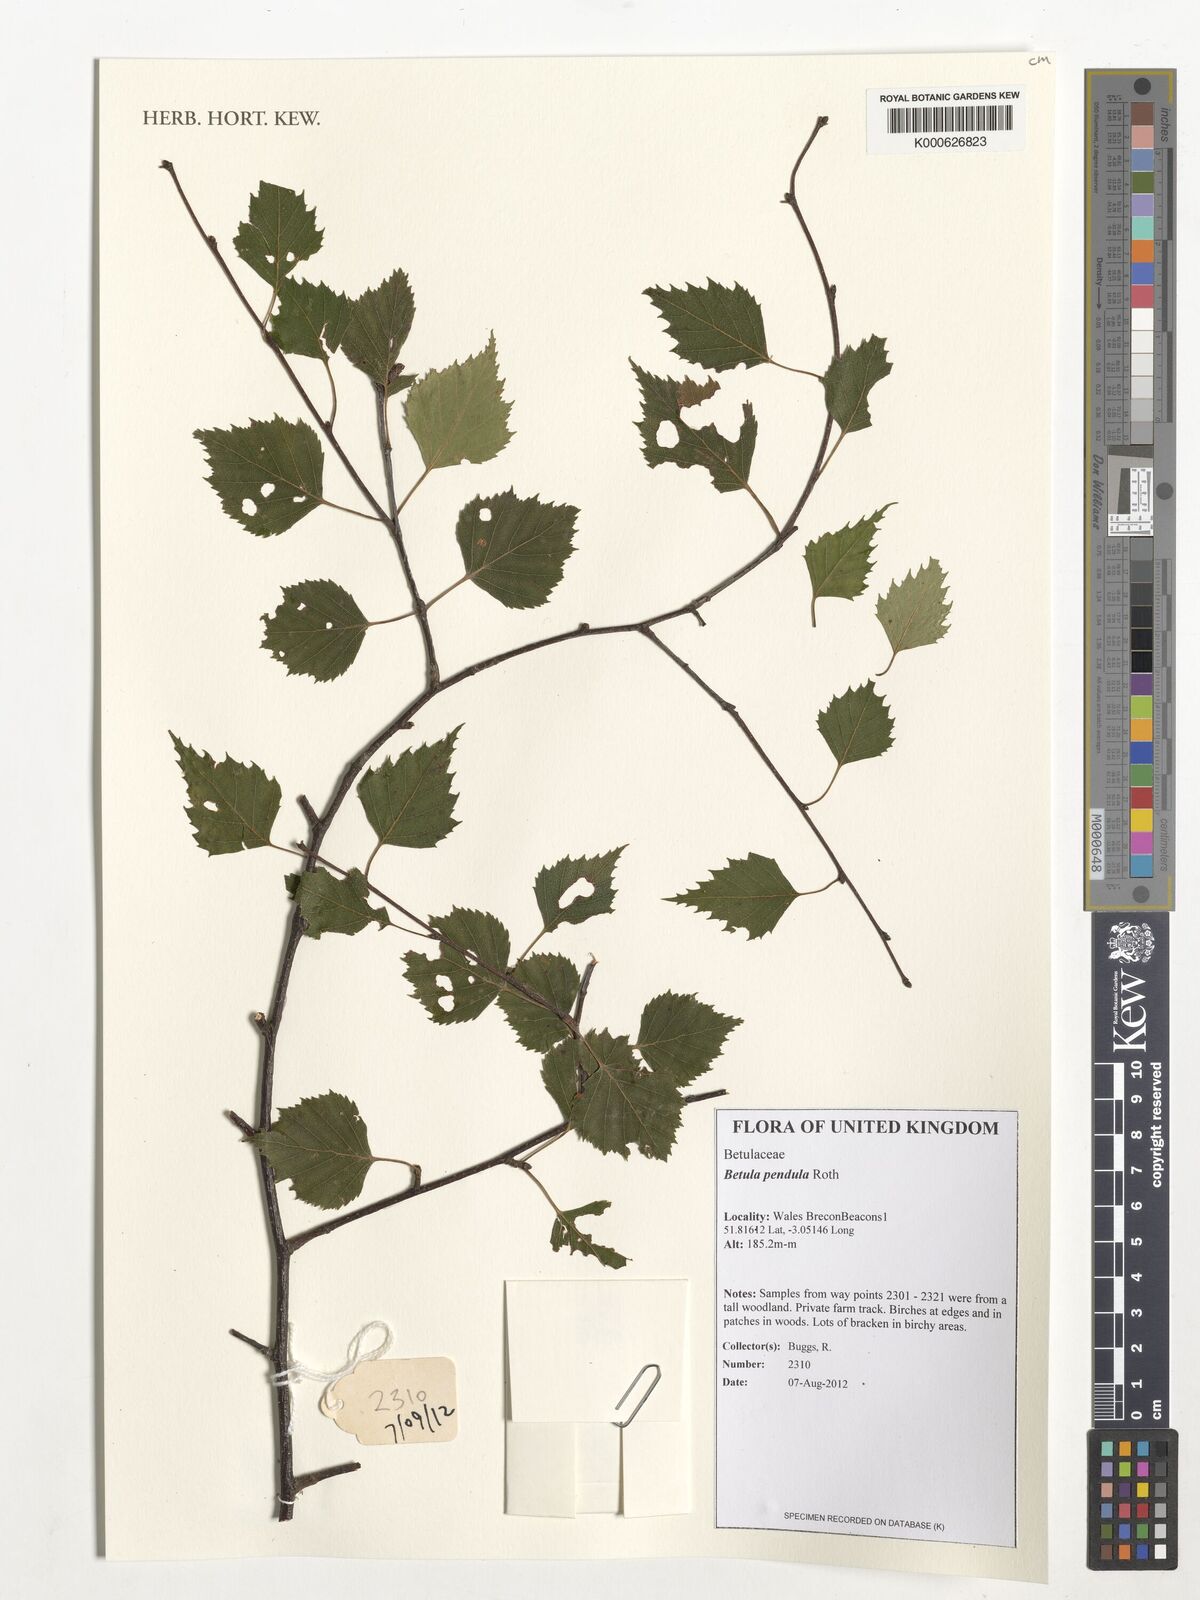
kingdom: Plantae
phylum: Tracheophyta
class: Magnoliopsida
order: Fagales
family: Betulaceae
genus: Betula
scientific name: Betula pendula
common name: Silver birch
